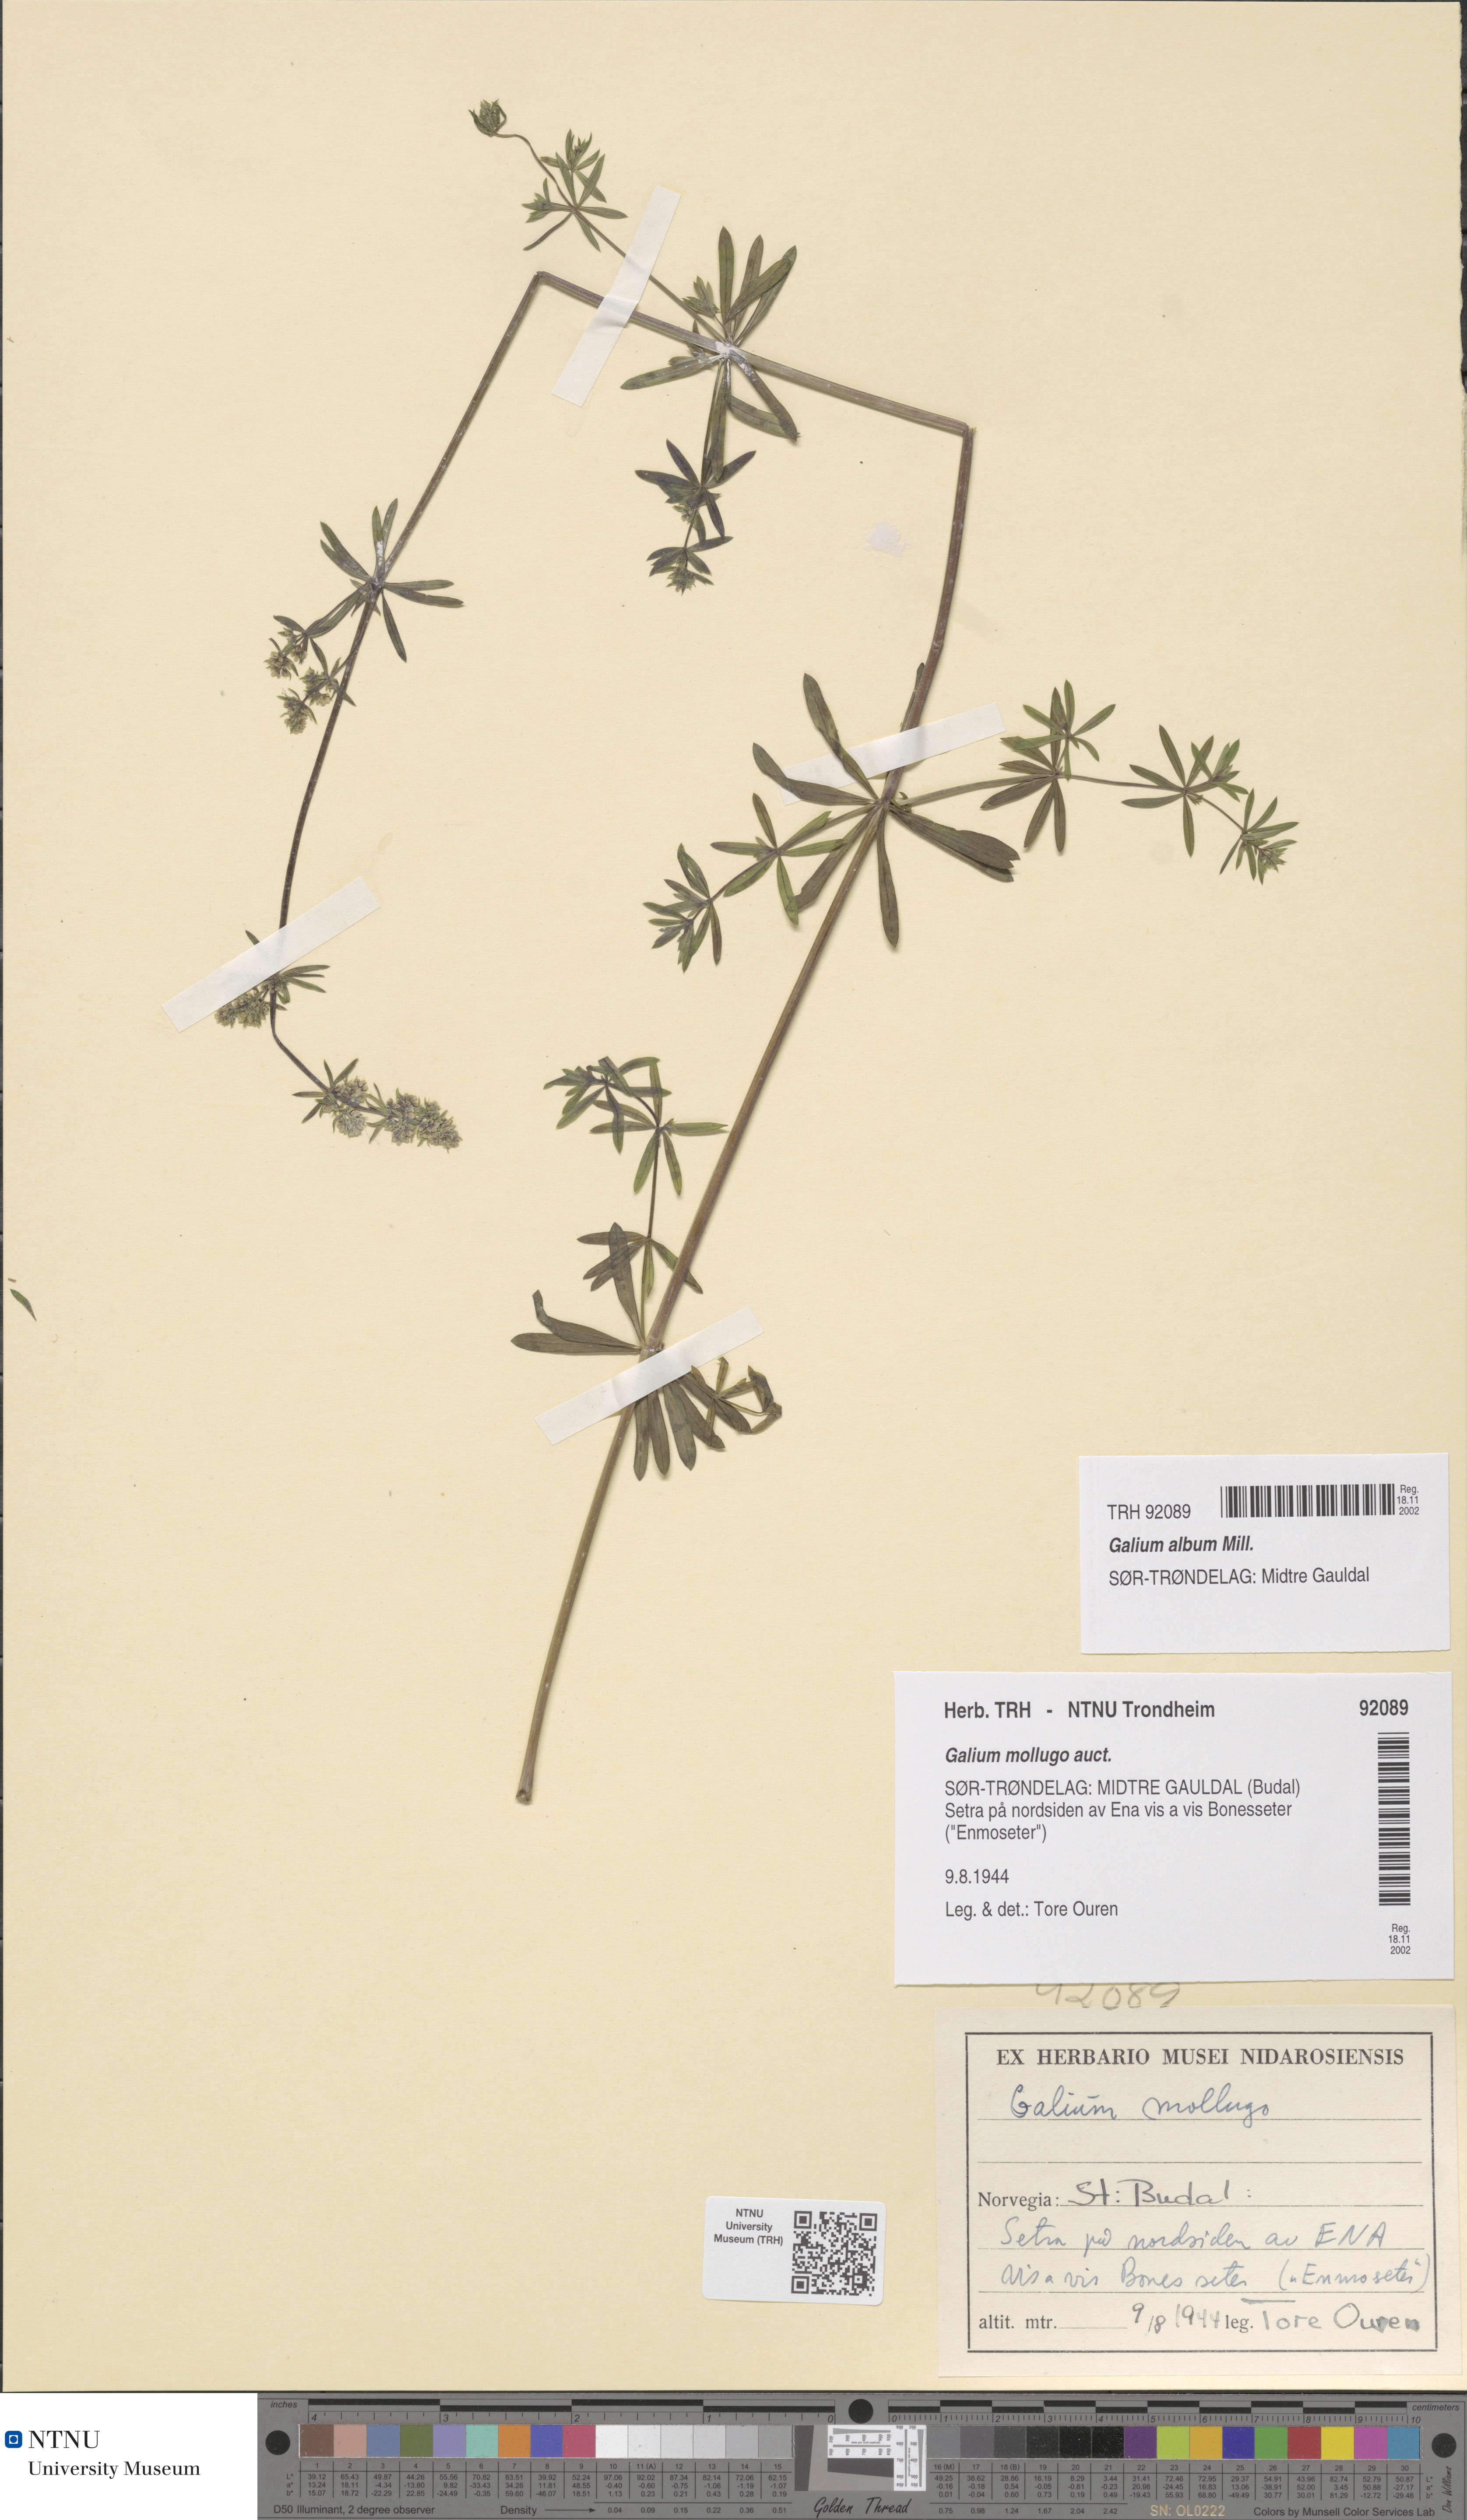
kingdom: Plantae
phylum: Tracheophyta
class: Magnoliopsida
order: Gentianales
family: Rubiaceae
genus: Galium
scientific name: Galium album
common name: White bedstraw
